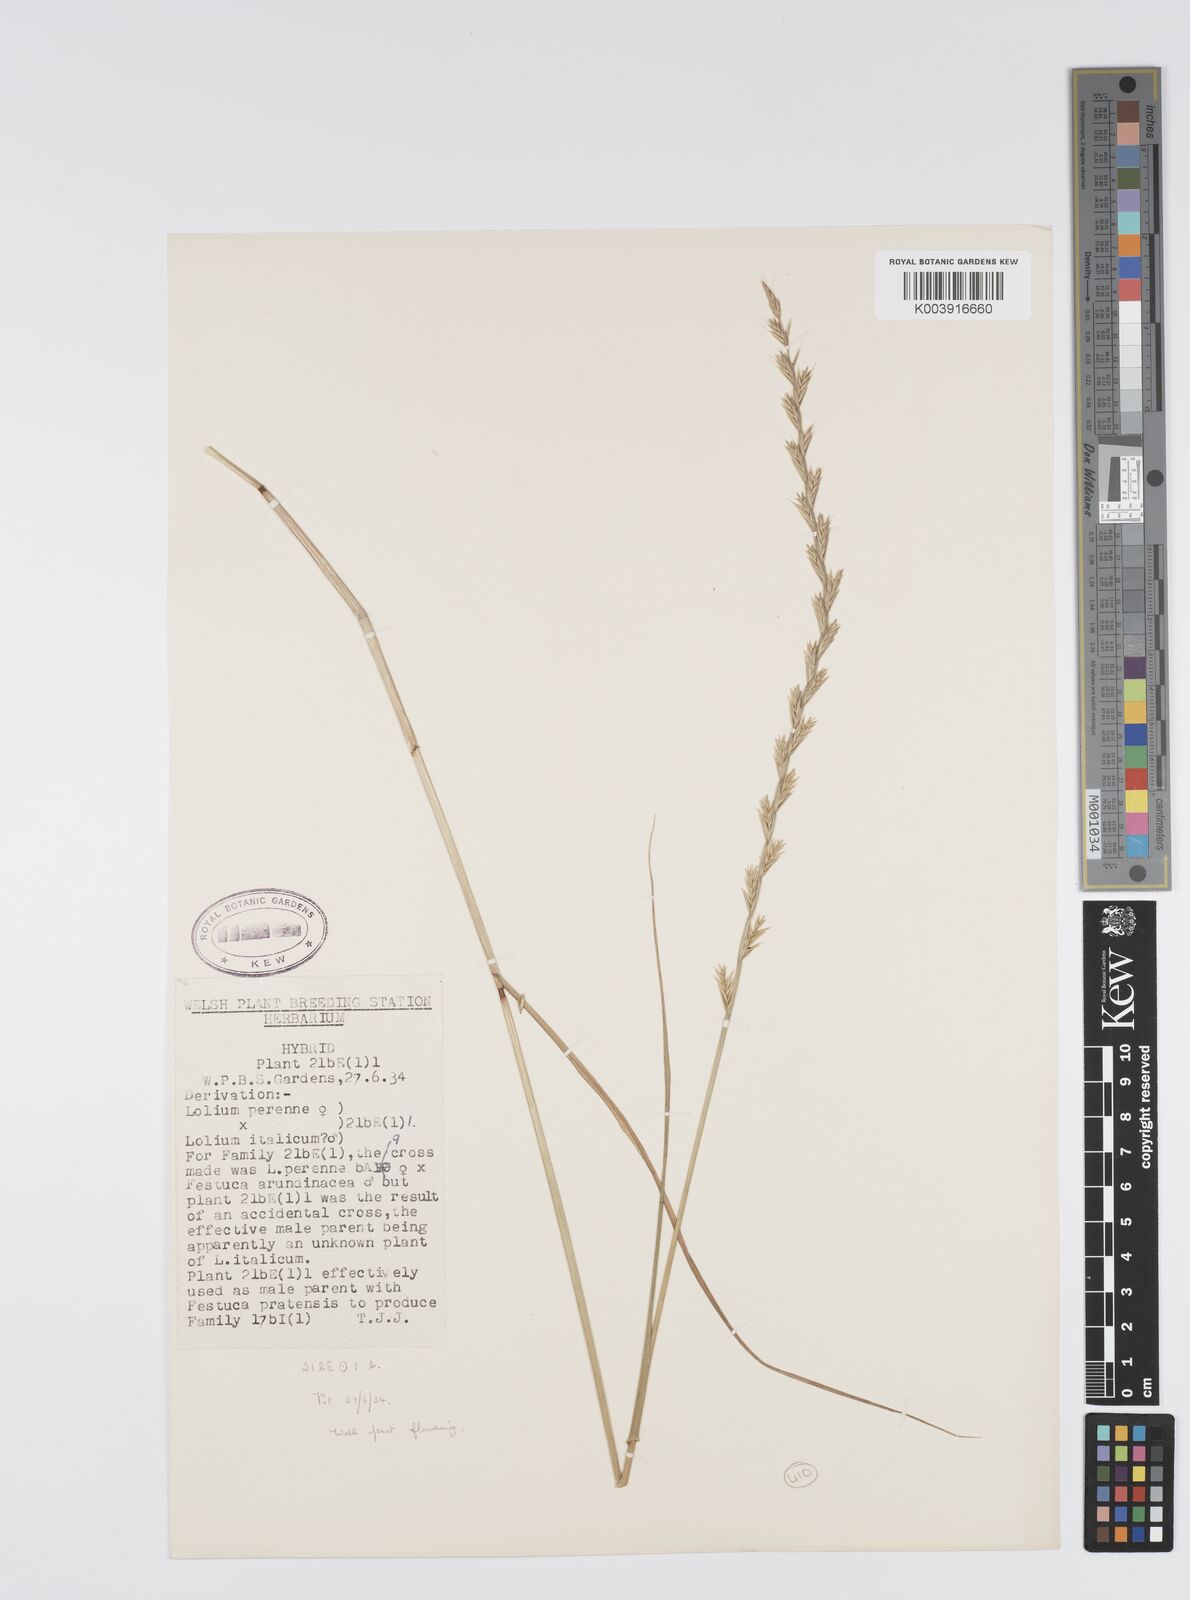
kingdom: Plantae
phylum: Tracheophyta
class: Liliopsida
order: Poales
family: Poaceae
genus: Lolium
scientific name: Lolium perenne
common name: Perennial ryegrass
